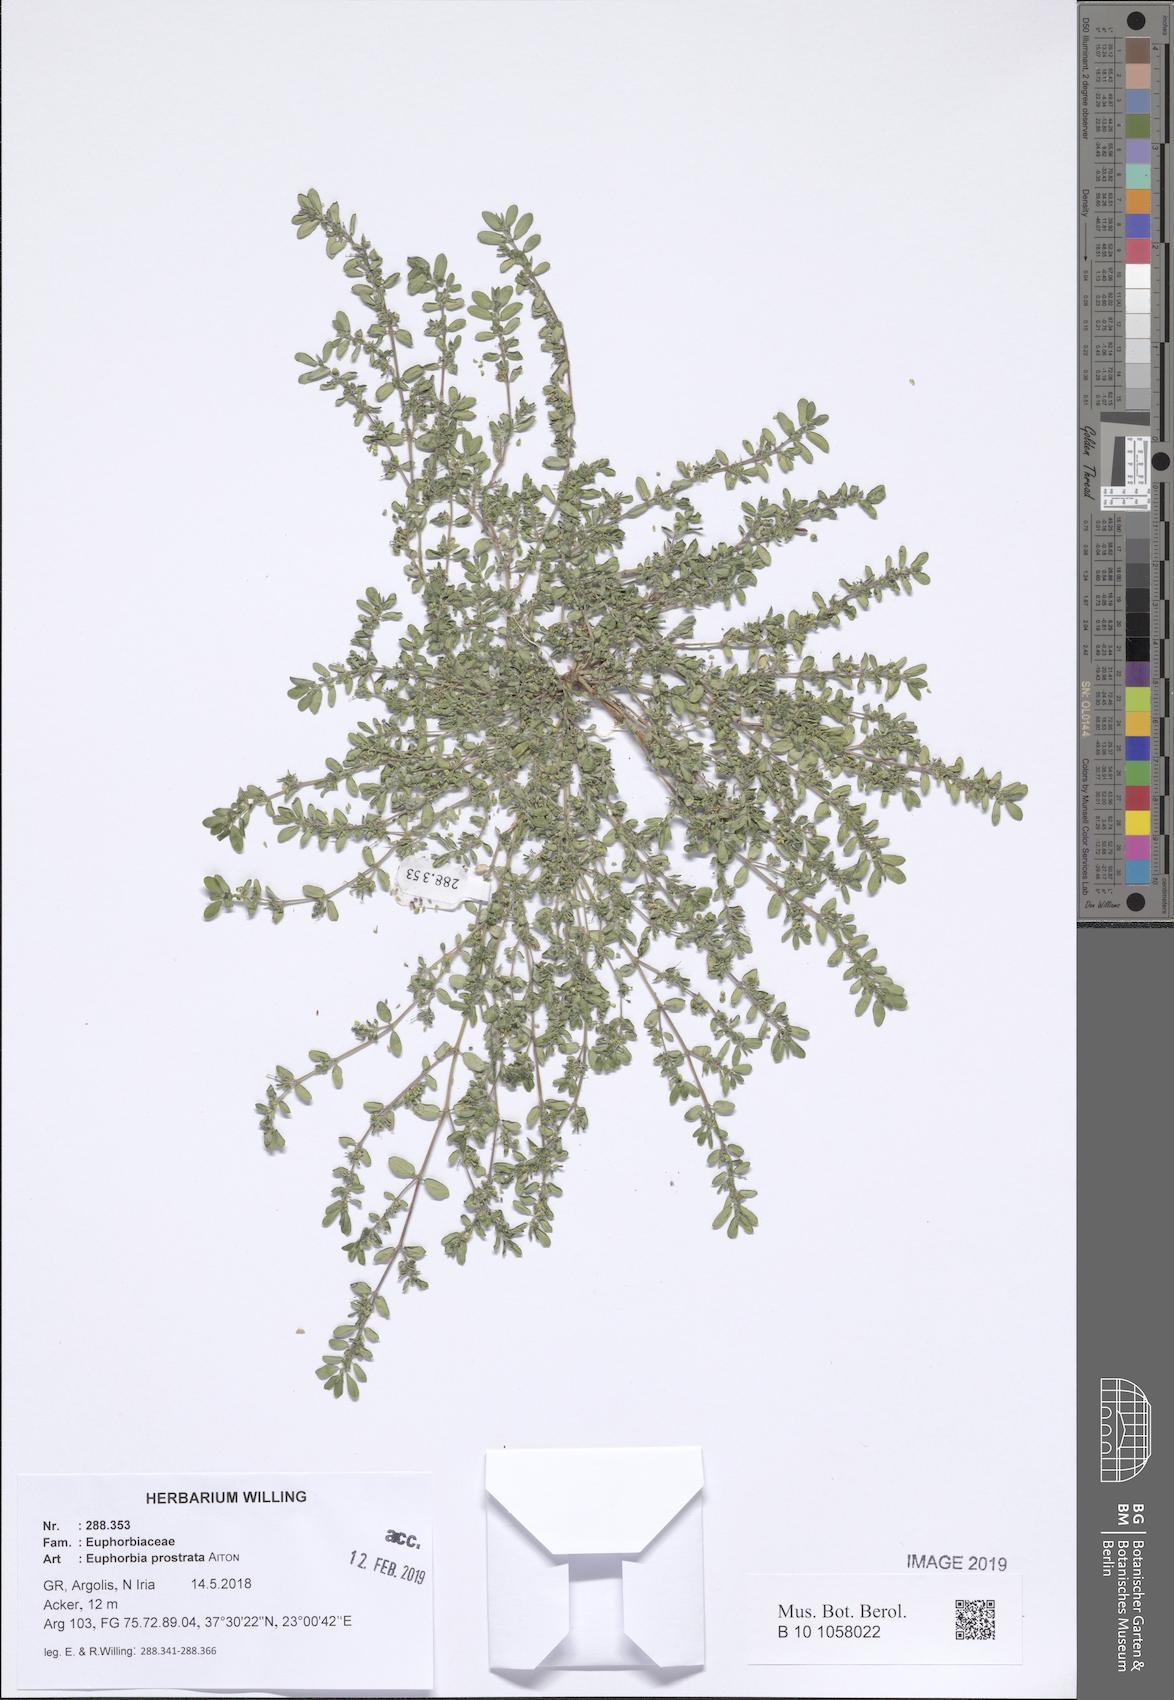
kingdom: Plantae
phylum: Tracheophyta
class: Magnoliopsida
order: Malpighiales
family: Euphorbiaceae
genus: Euphorbia
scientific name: Euphorbia prostrata
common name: Prostrate sandmat
